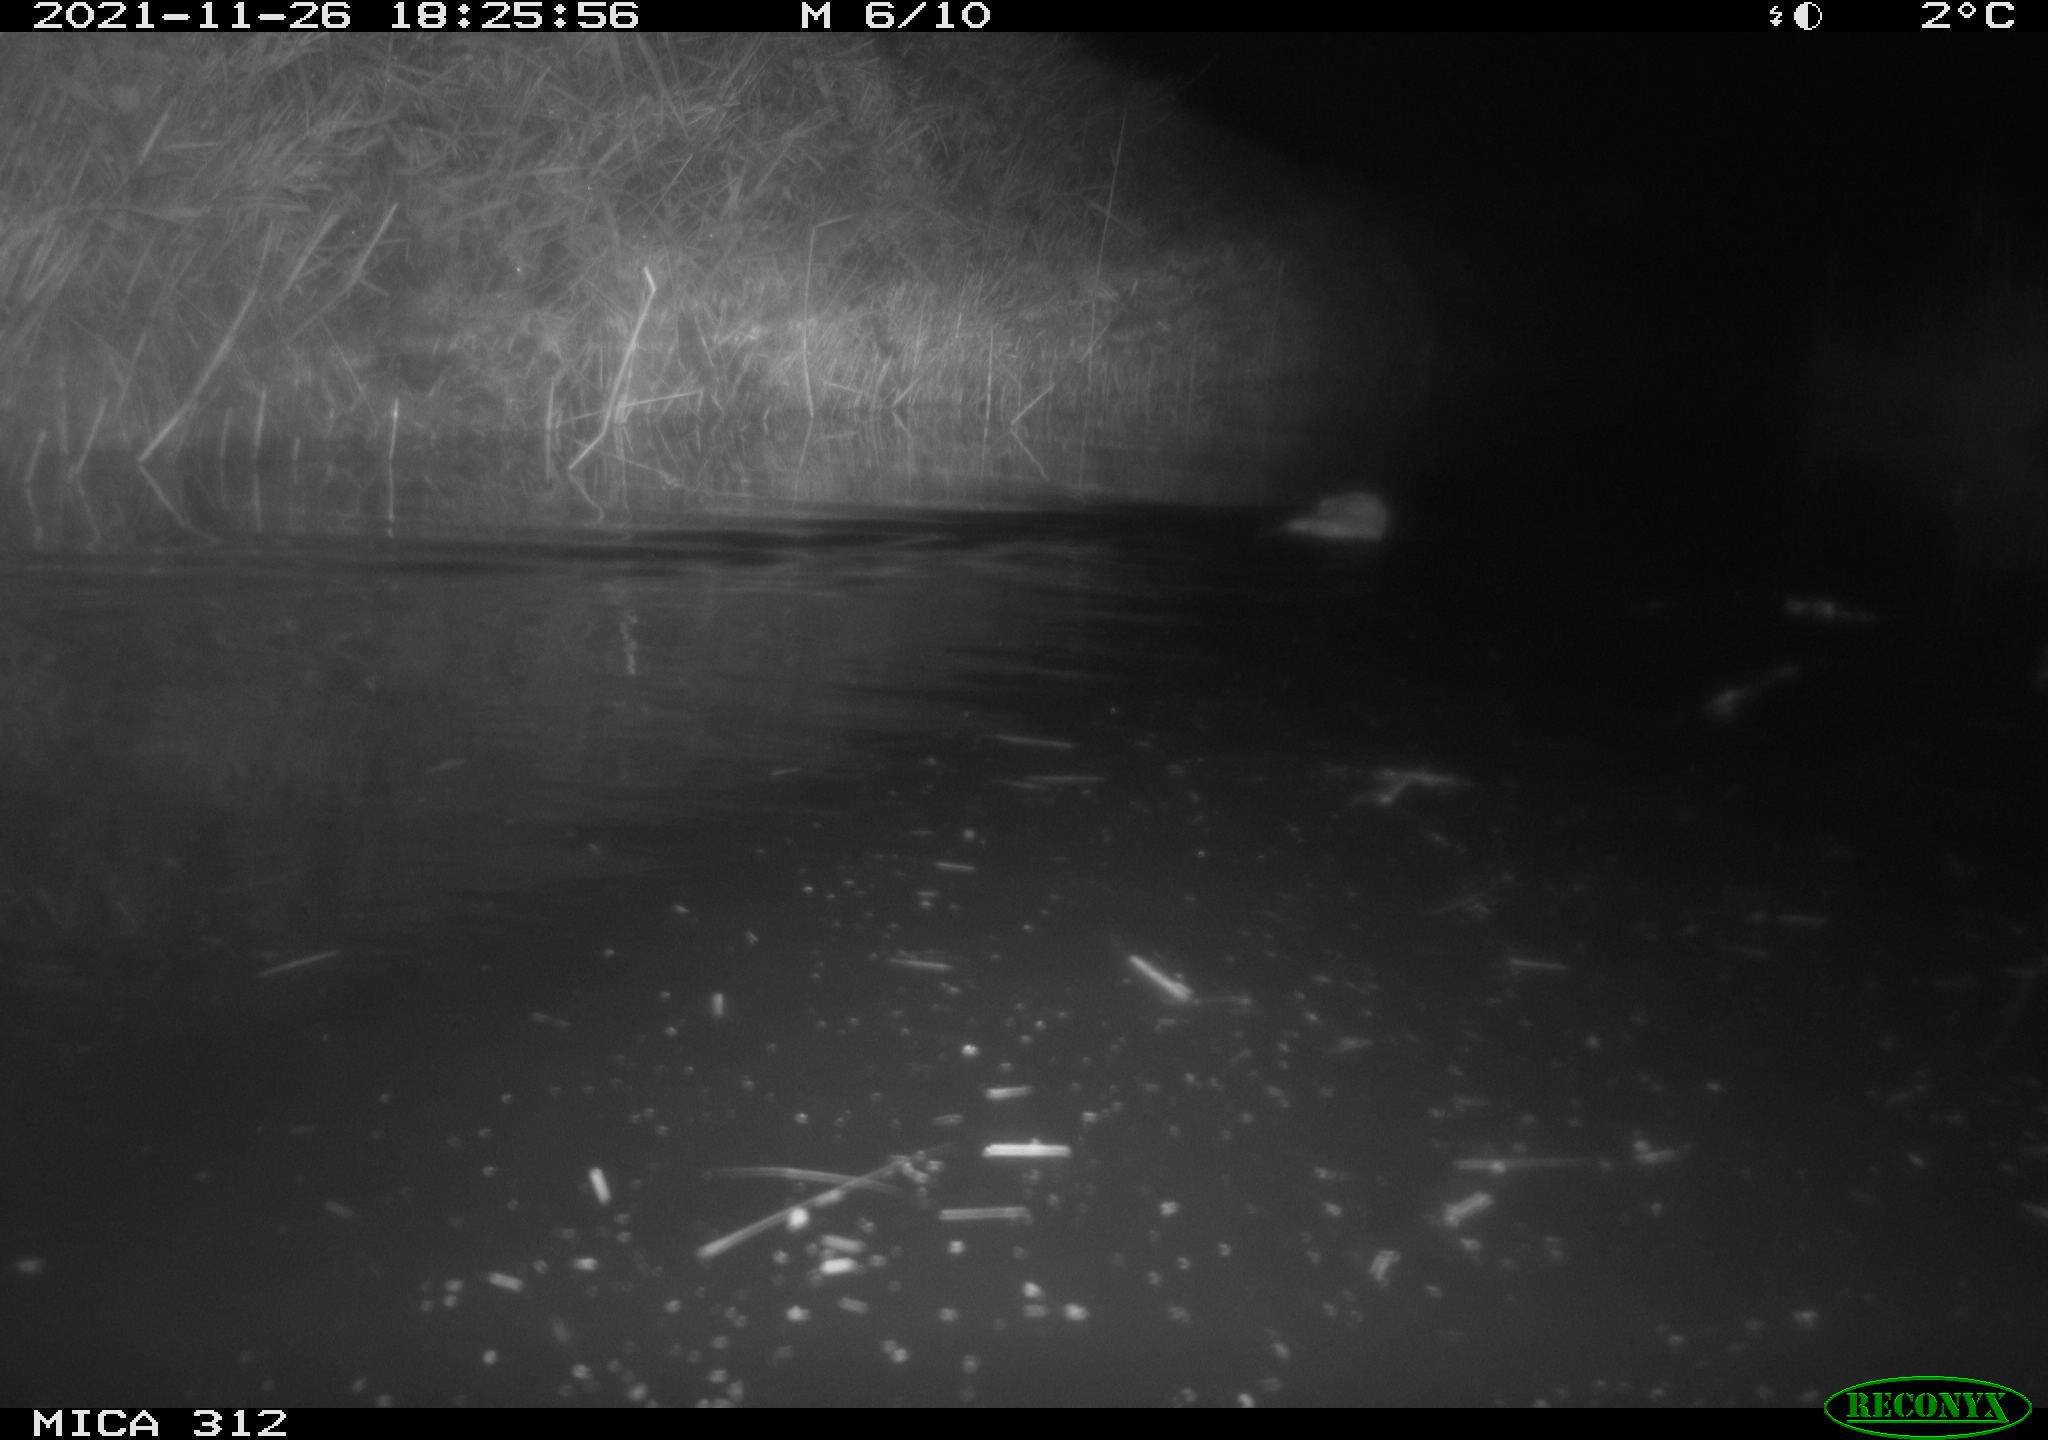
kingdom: Animalia
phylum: Chordata
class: Mammalia
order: Rodentia
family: Cricetidae
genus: Ondatra
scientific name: Ondatra zibethicus
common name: Muskrat
